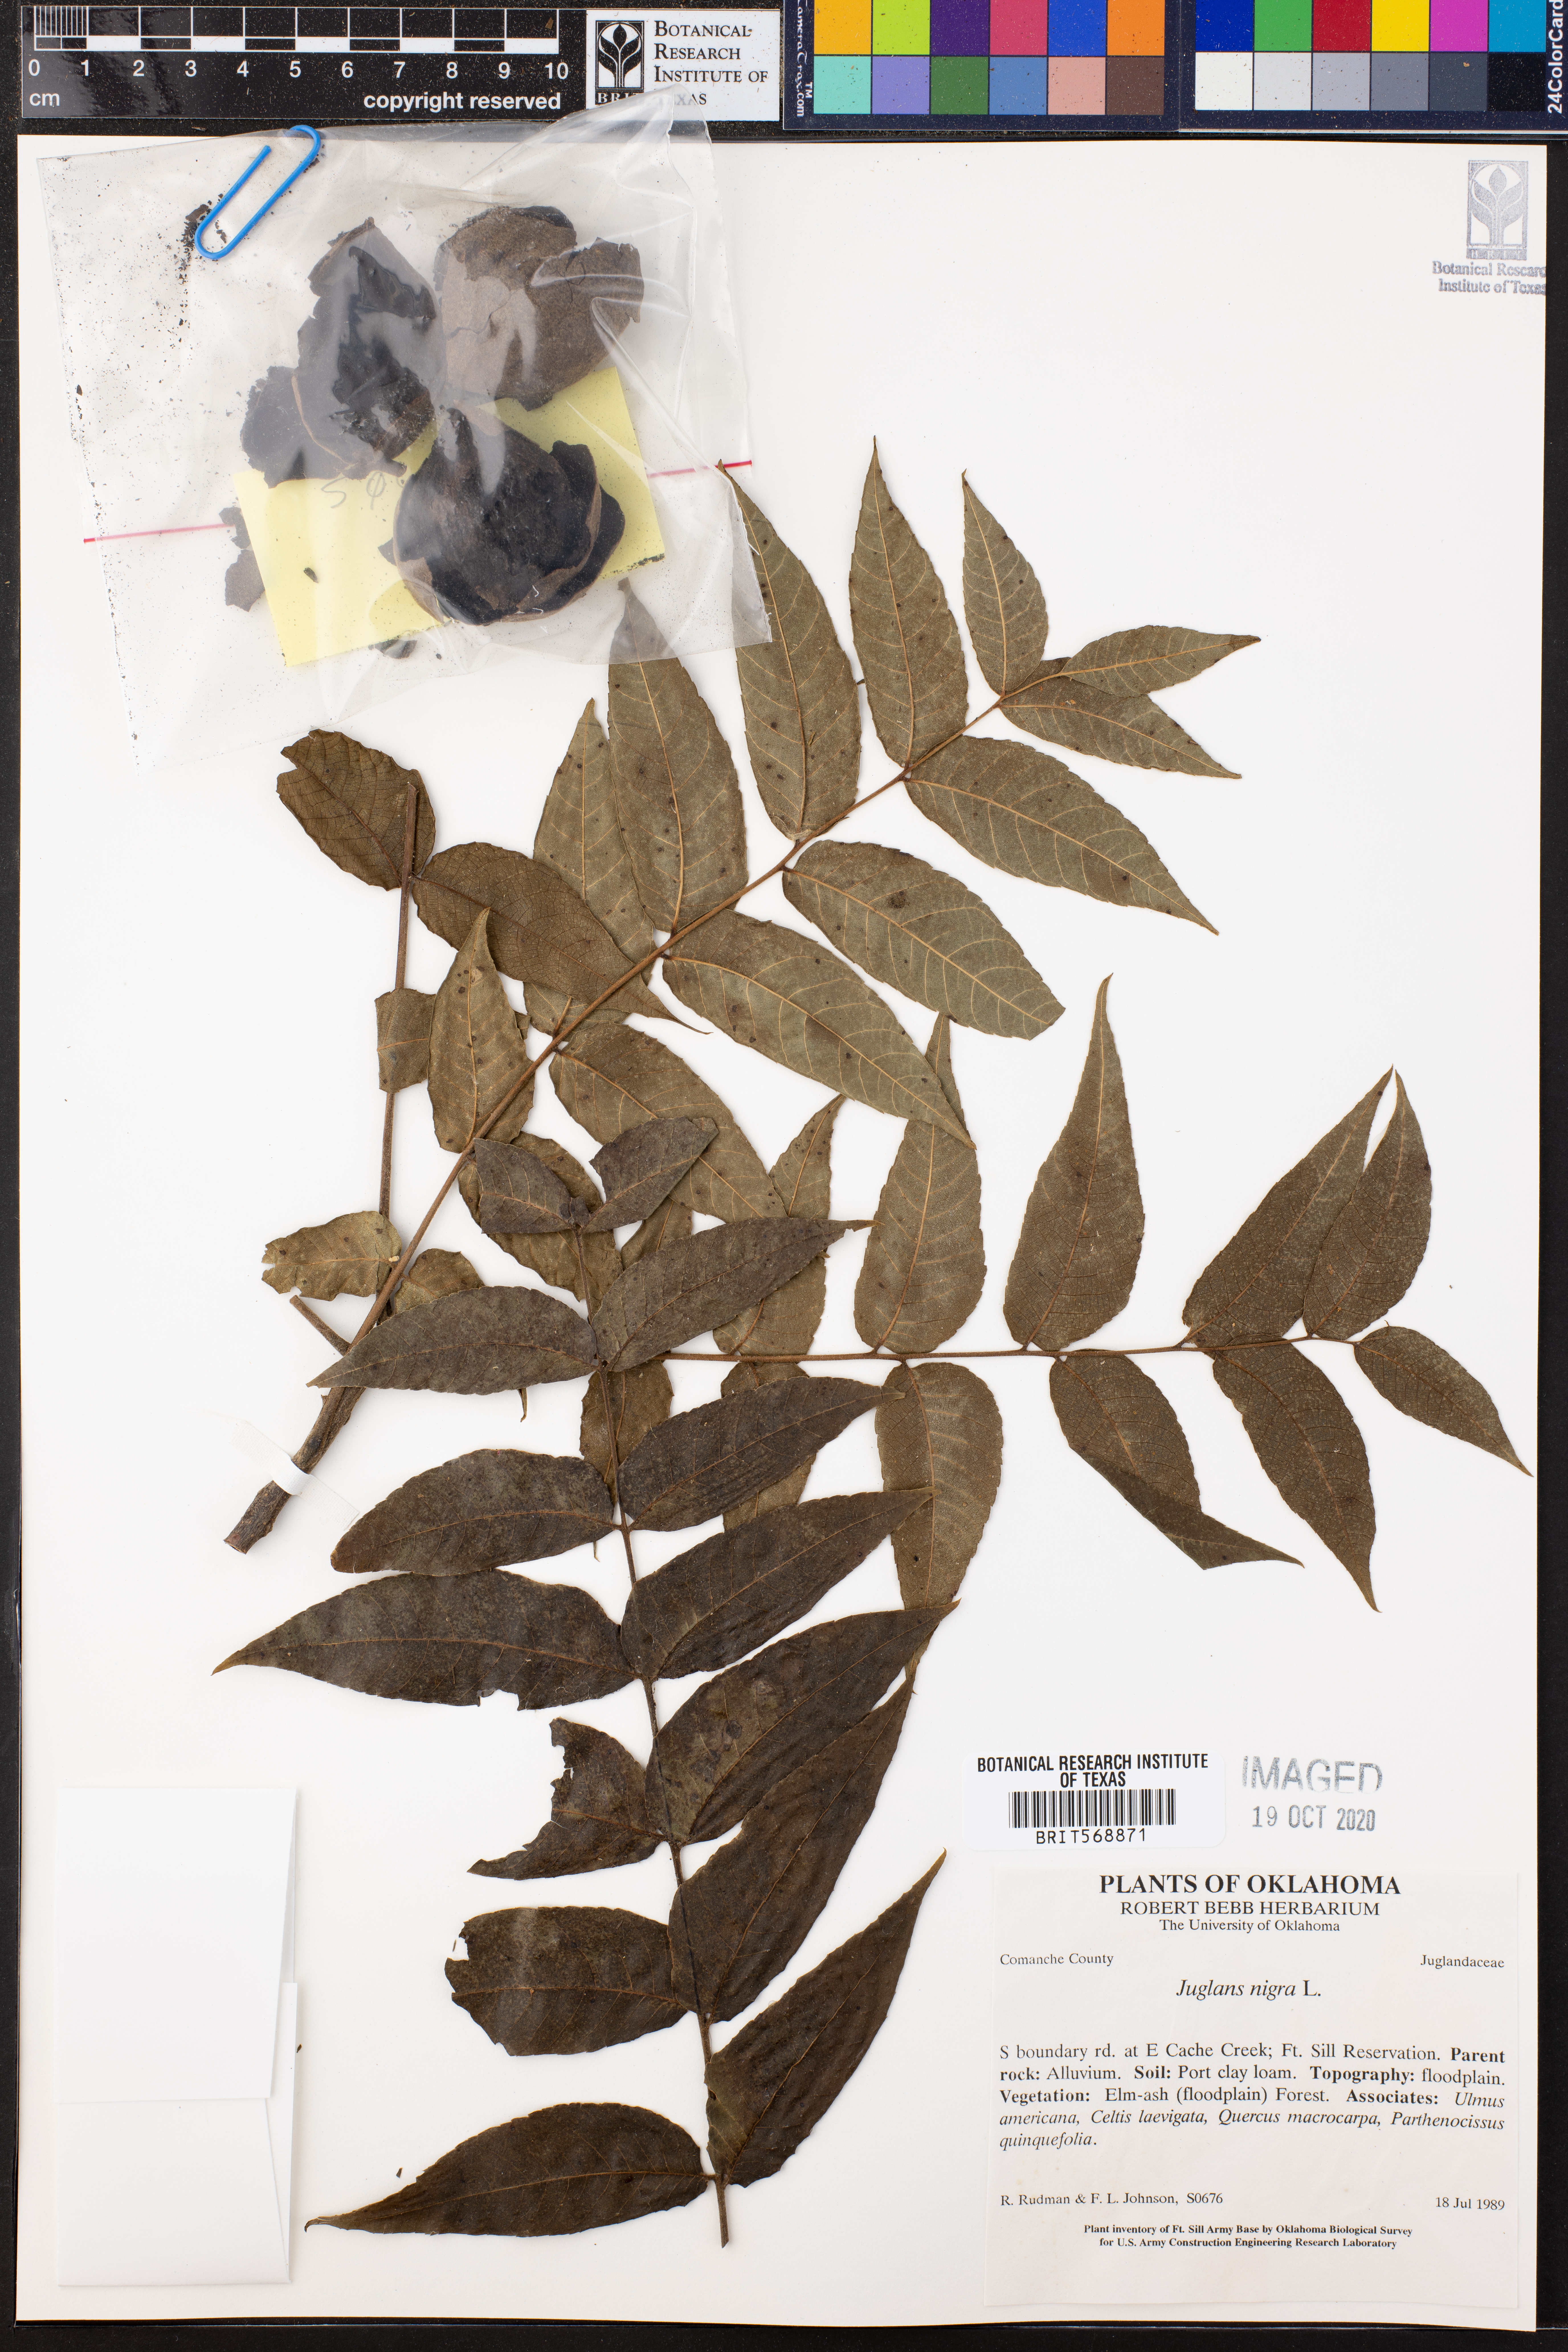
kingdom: Plantae
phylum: Tracheophyta
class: Magnoliopsida
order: Fagales
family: Juglandaceae
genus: Juglans
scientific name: Juglans nigra
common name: Black walnut
